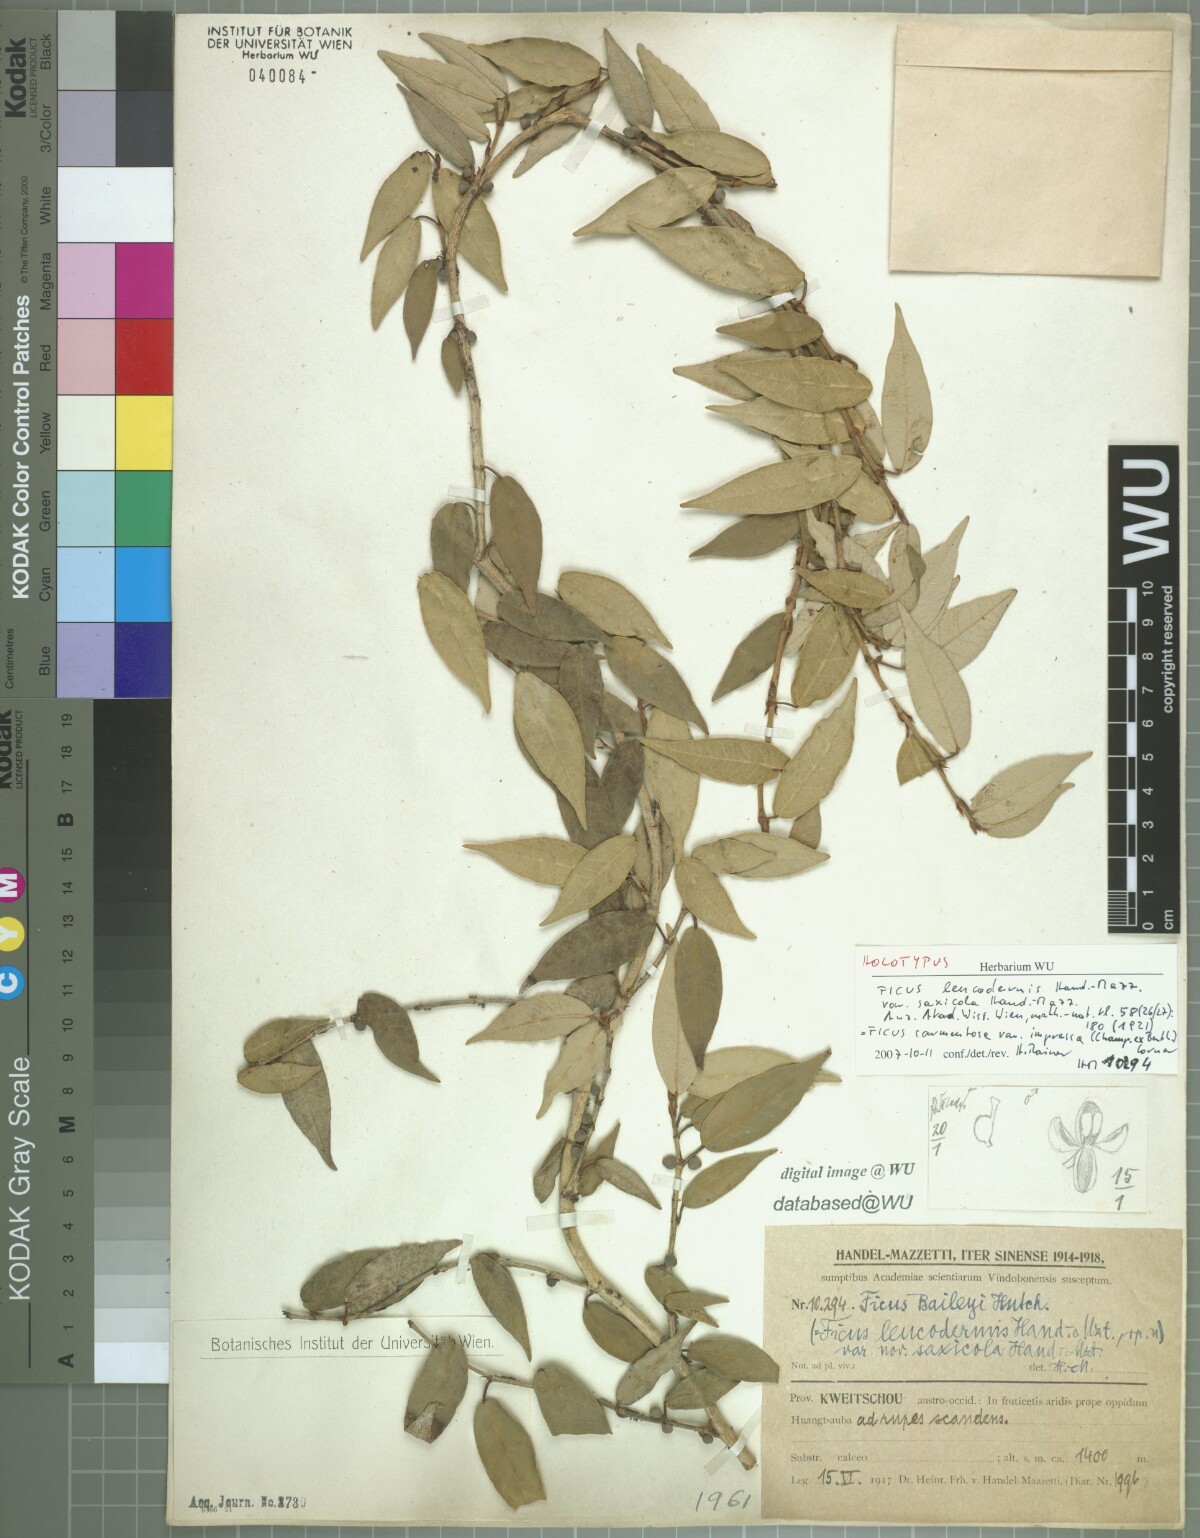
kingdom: Plantae
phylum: Tracheophyta
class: Magnoliopsida
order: Rosales
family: Moraceae
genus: Ficus
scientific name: Ficus sarmentosa
